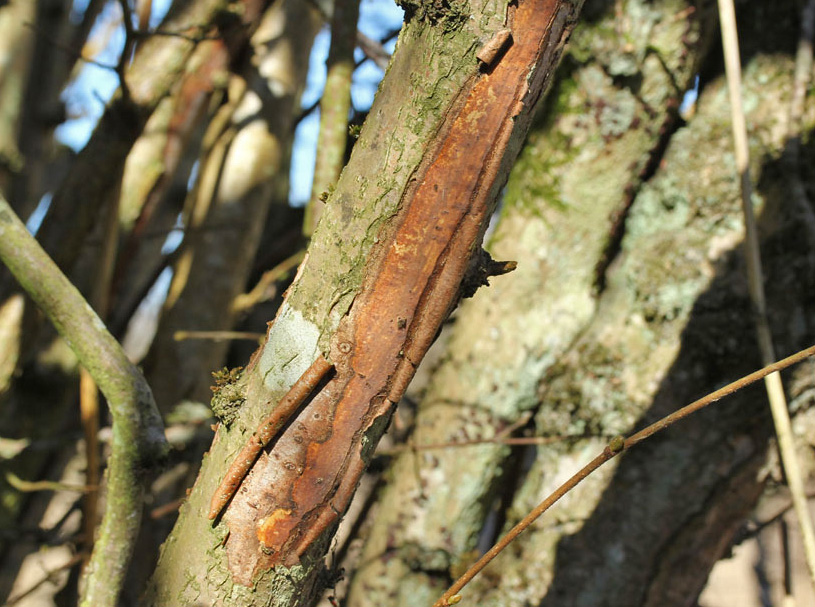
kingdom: Fungi
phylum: Basidiomycota
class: Agaricomycetes
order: Corticiales
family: Vuilleminiaceae
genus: Vuilleminia
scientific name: Vuilleminia coryli
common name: hassel-barksprænger
